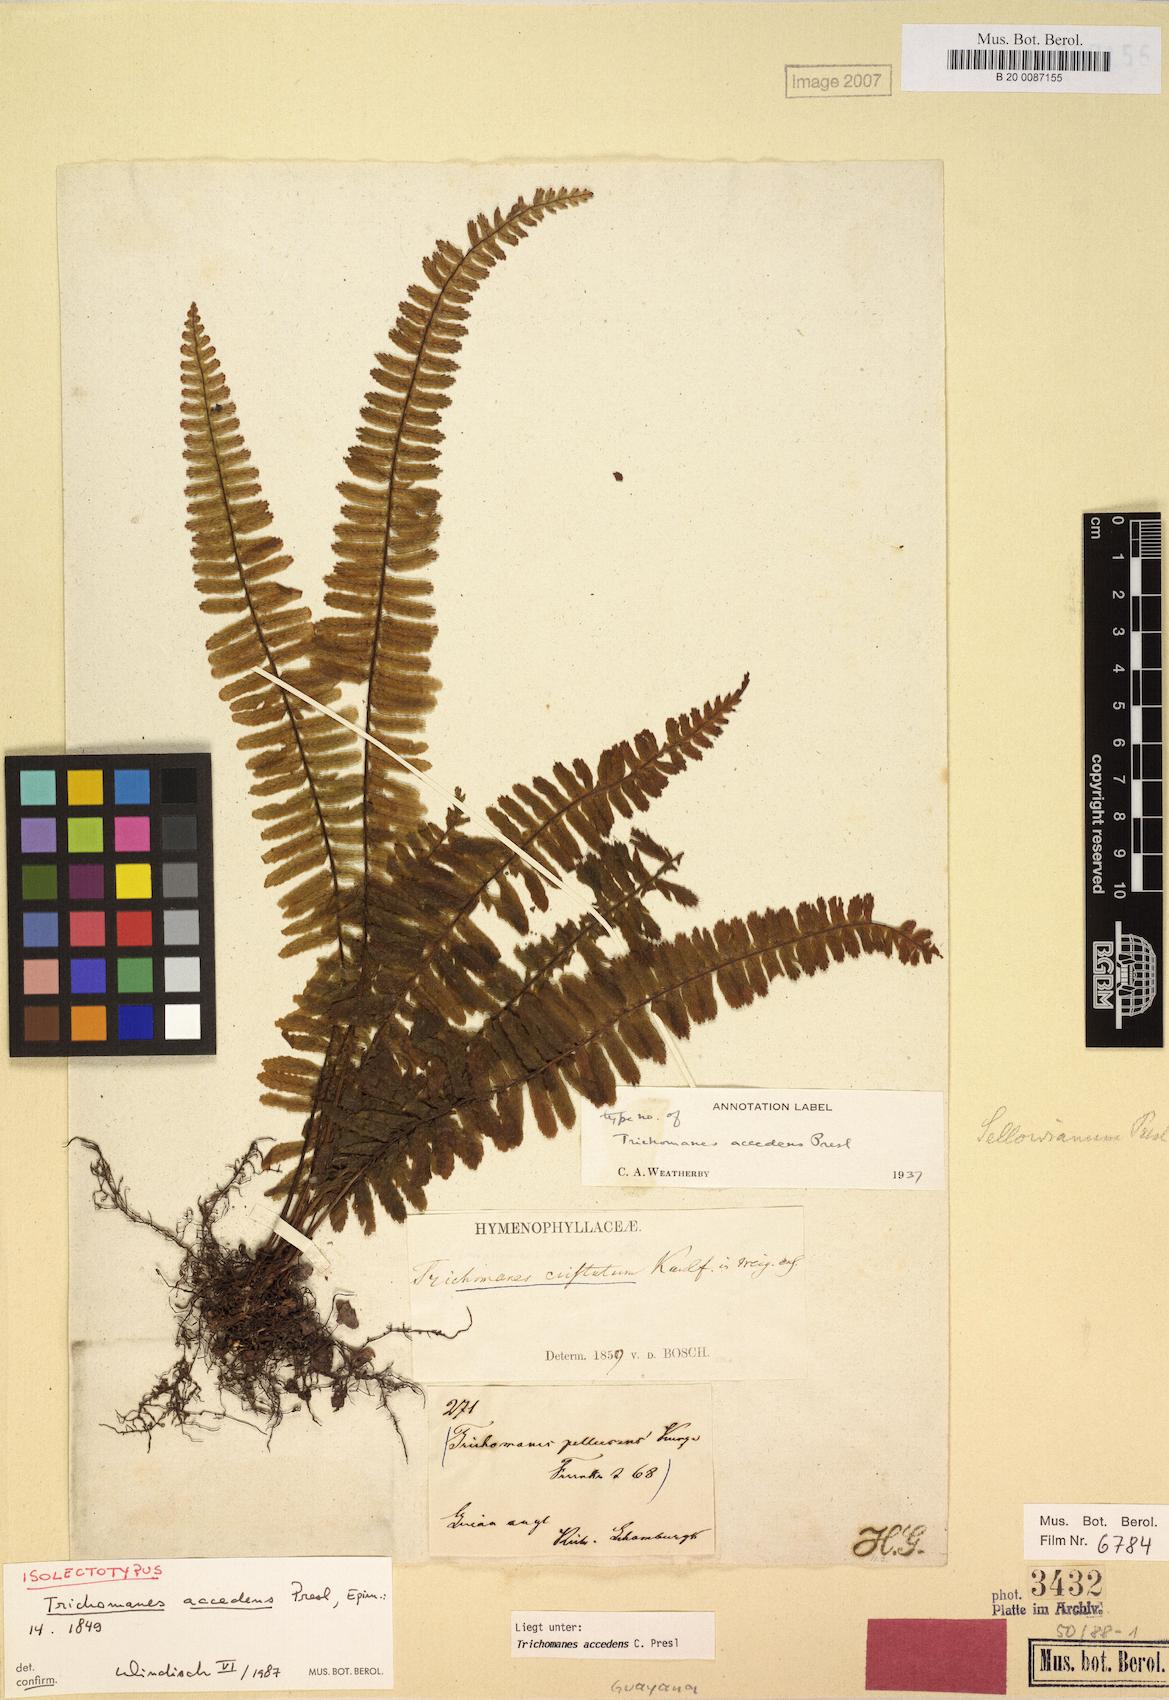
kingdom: Plantae
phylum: Tracheophyta
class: Polypodiopsida
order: Hymenophyllales
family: Hymenophyllaceae
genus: Trichomanes
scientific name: Trichomanes accedens
